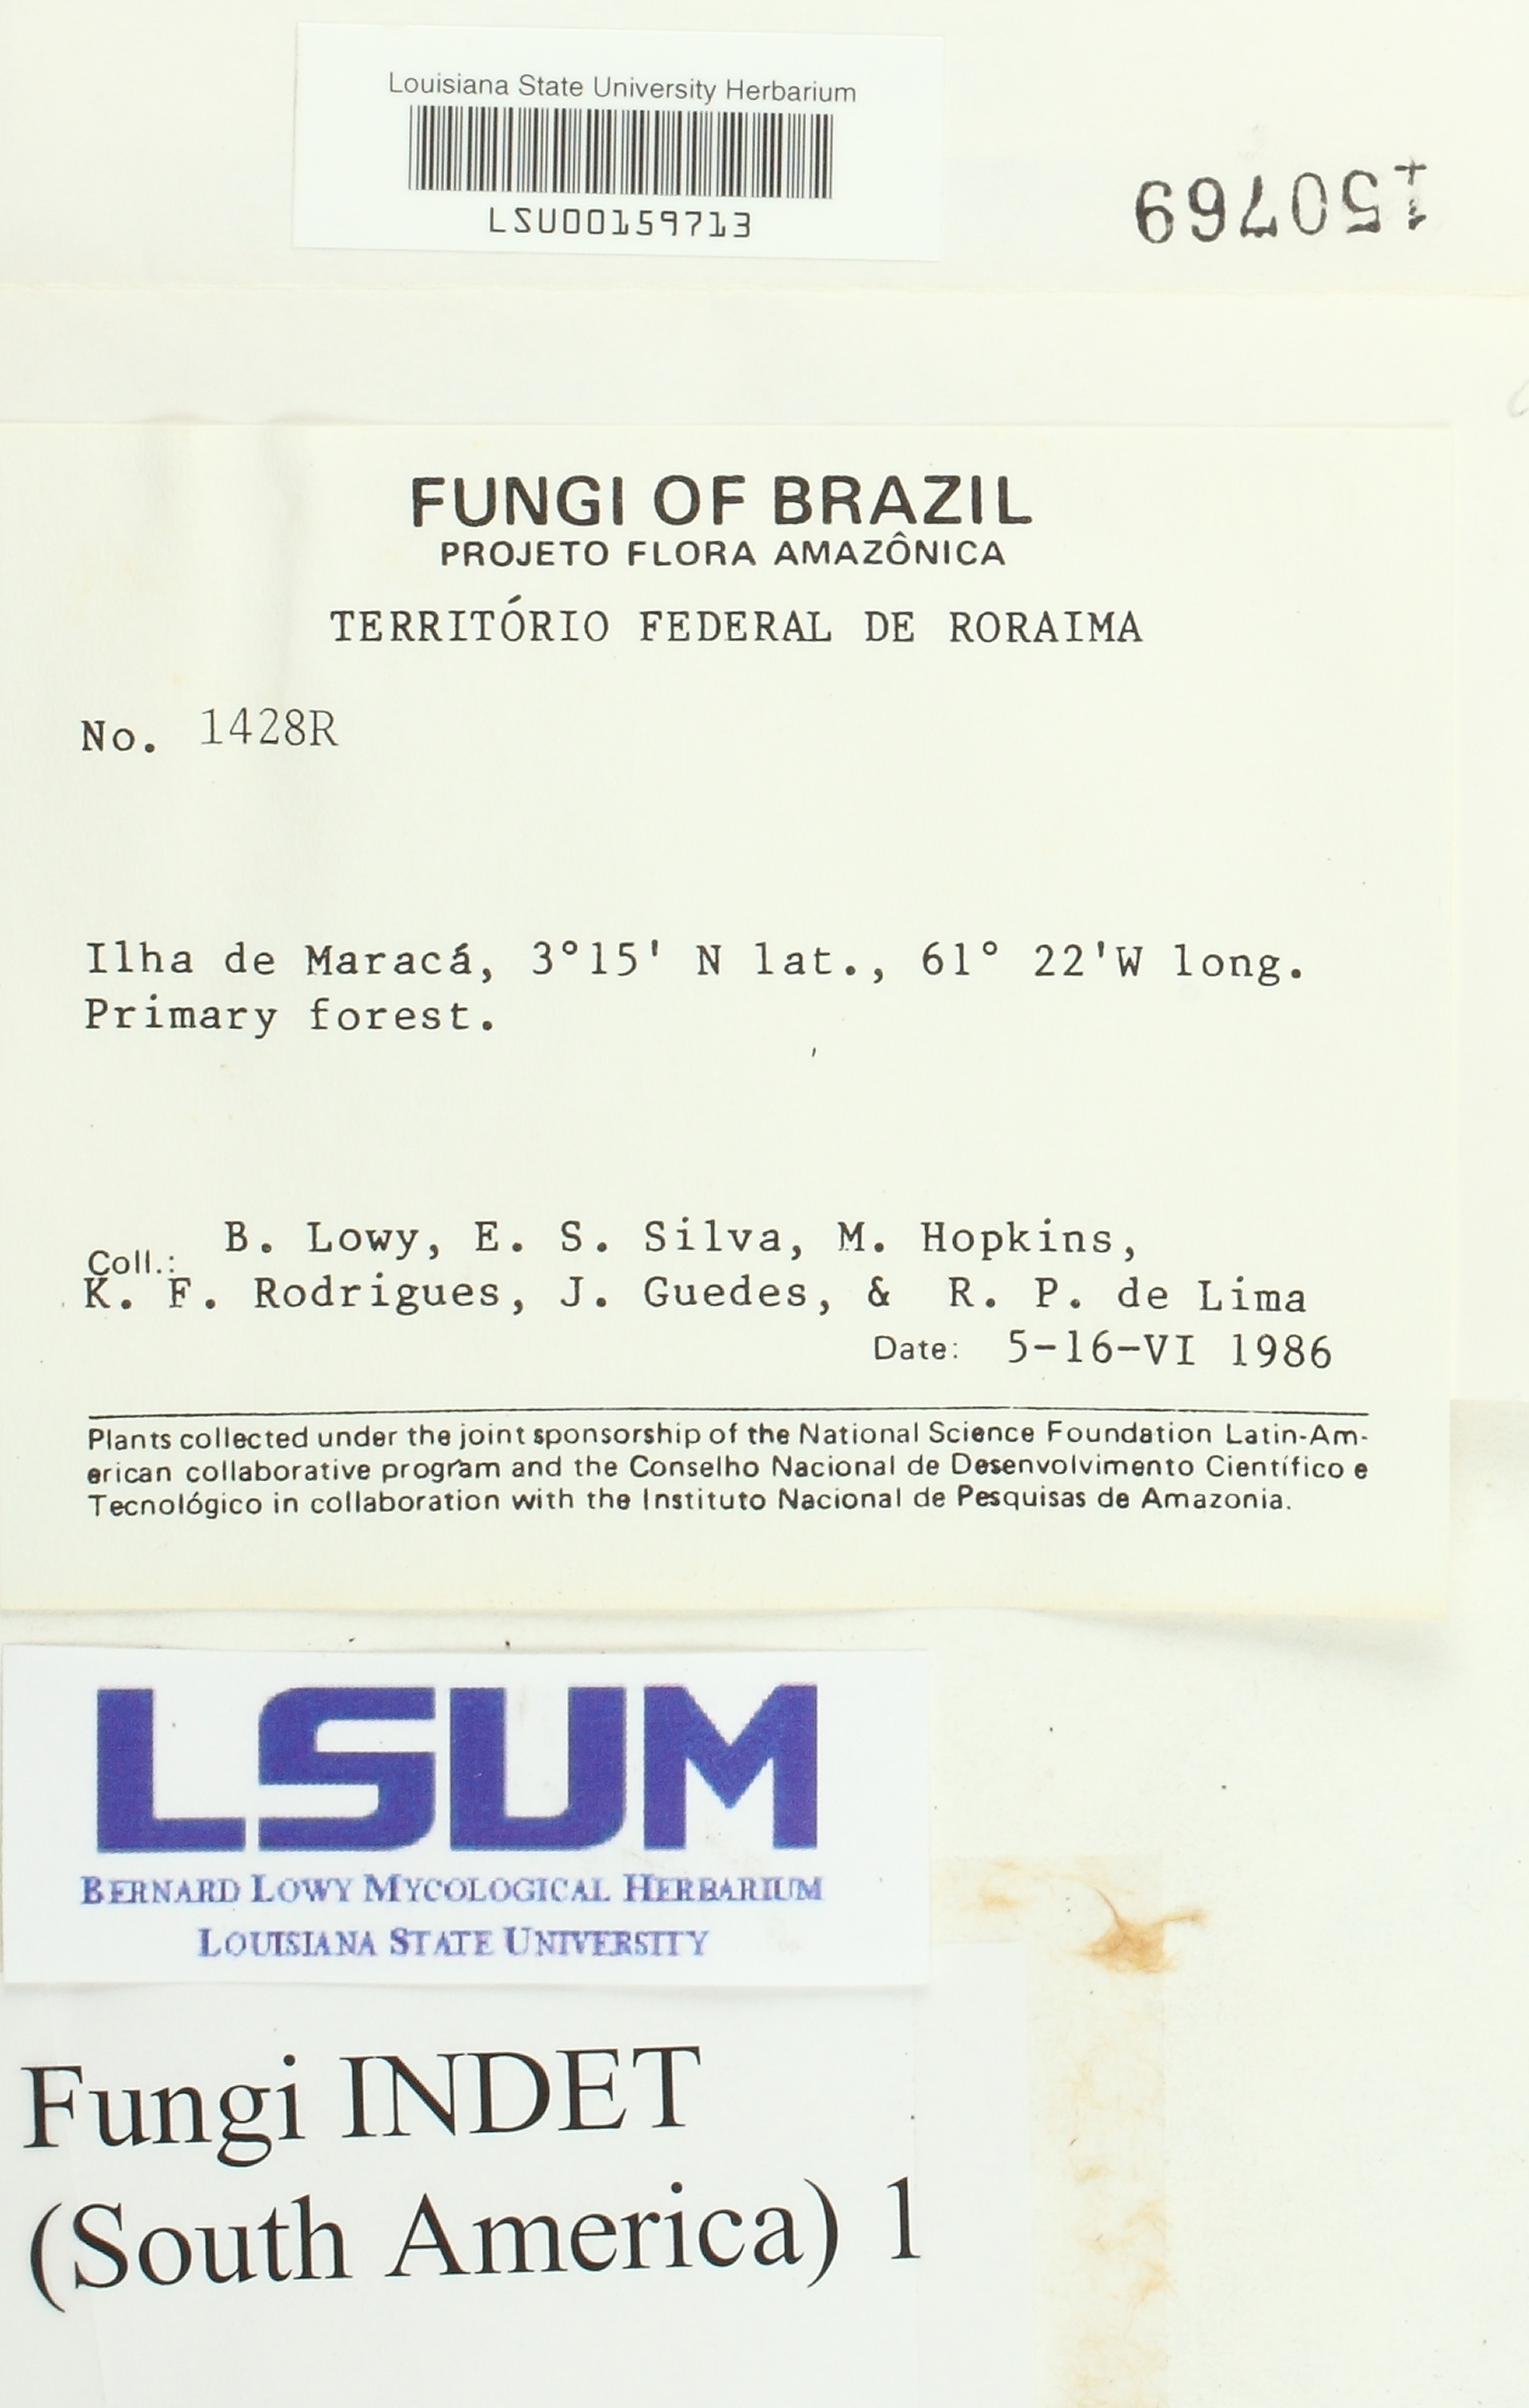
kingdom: Fungi
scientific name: Fungi
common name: Fungi
